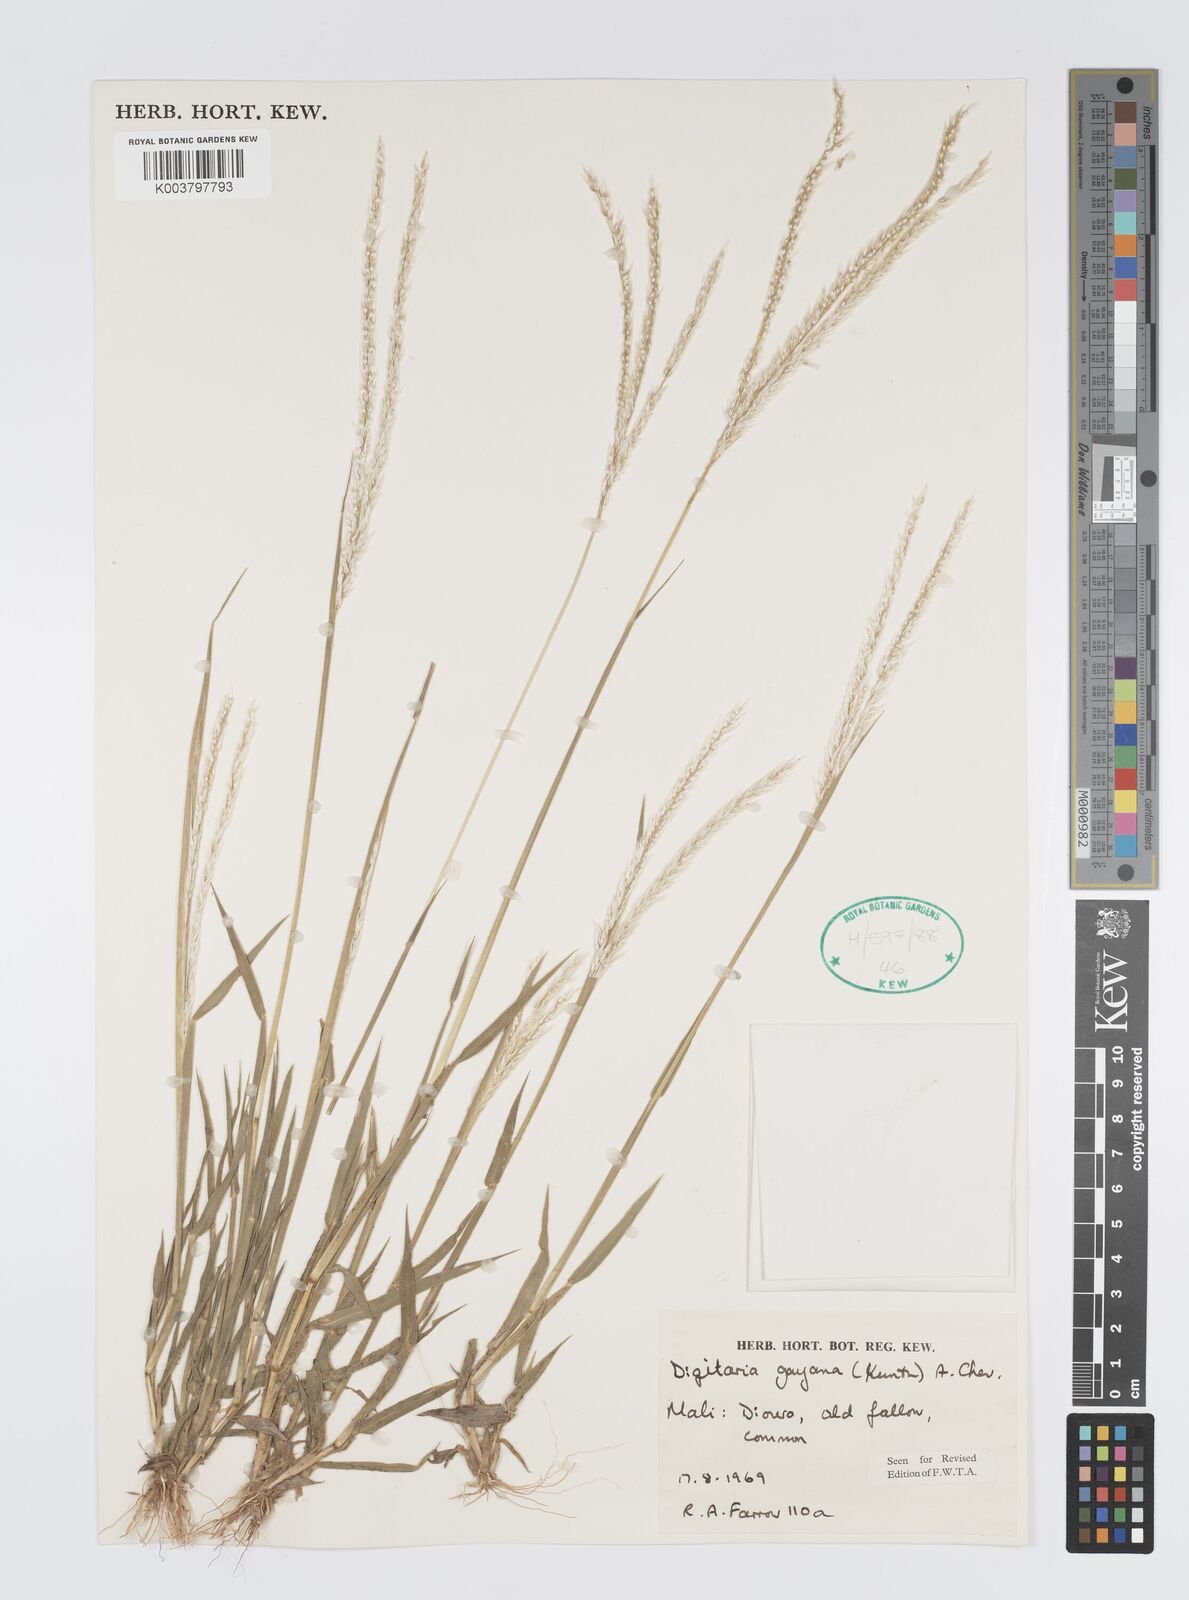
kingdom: Plantae
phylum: Tracheophyta
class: Liliopsida
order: Poales
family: Poaceae
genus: Digitaria
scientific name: Digitaria gayana
